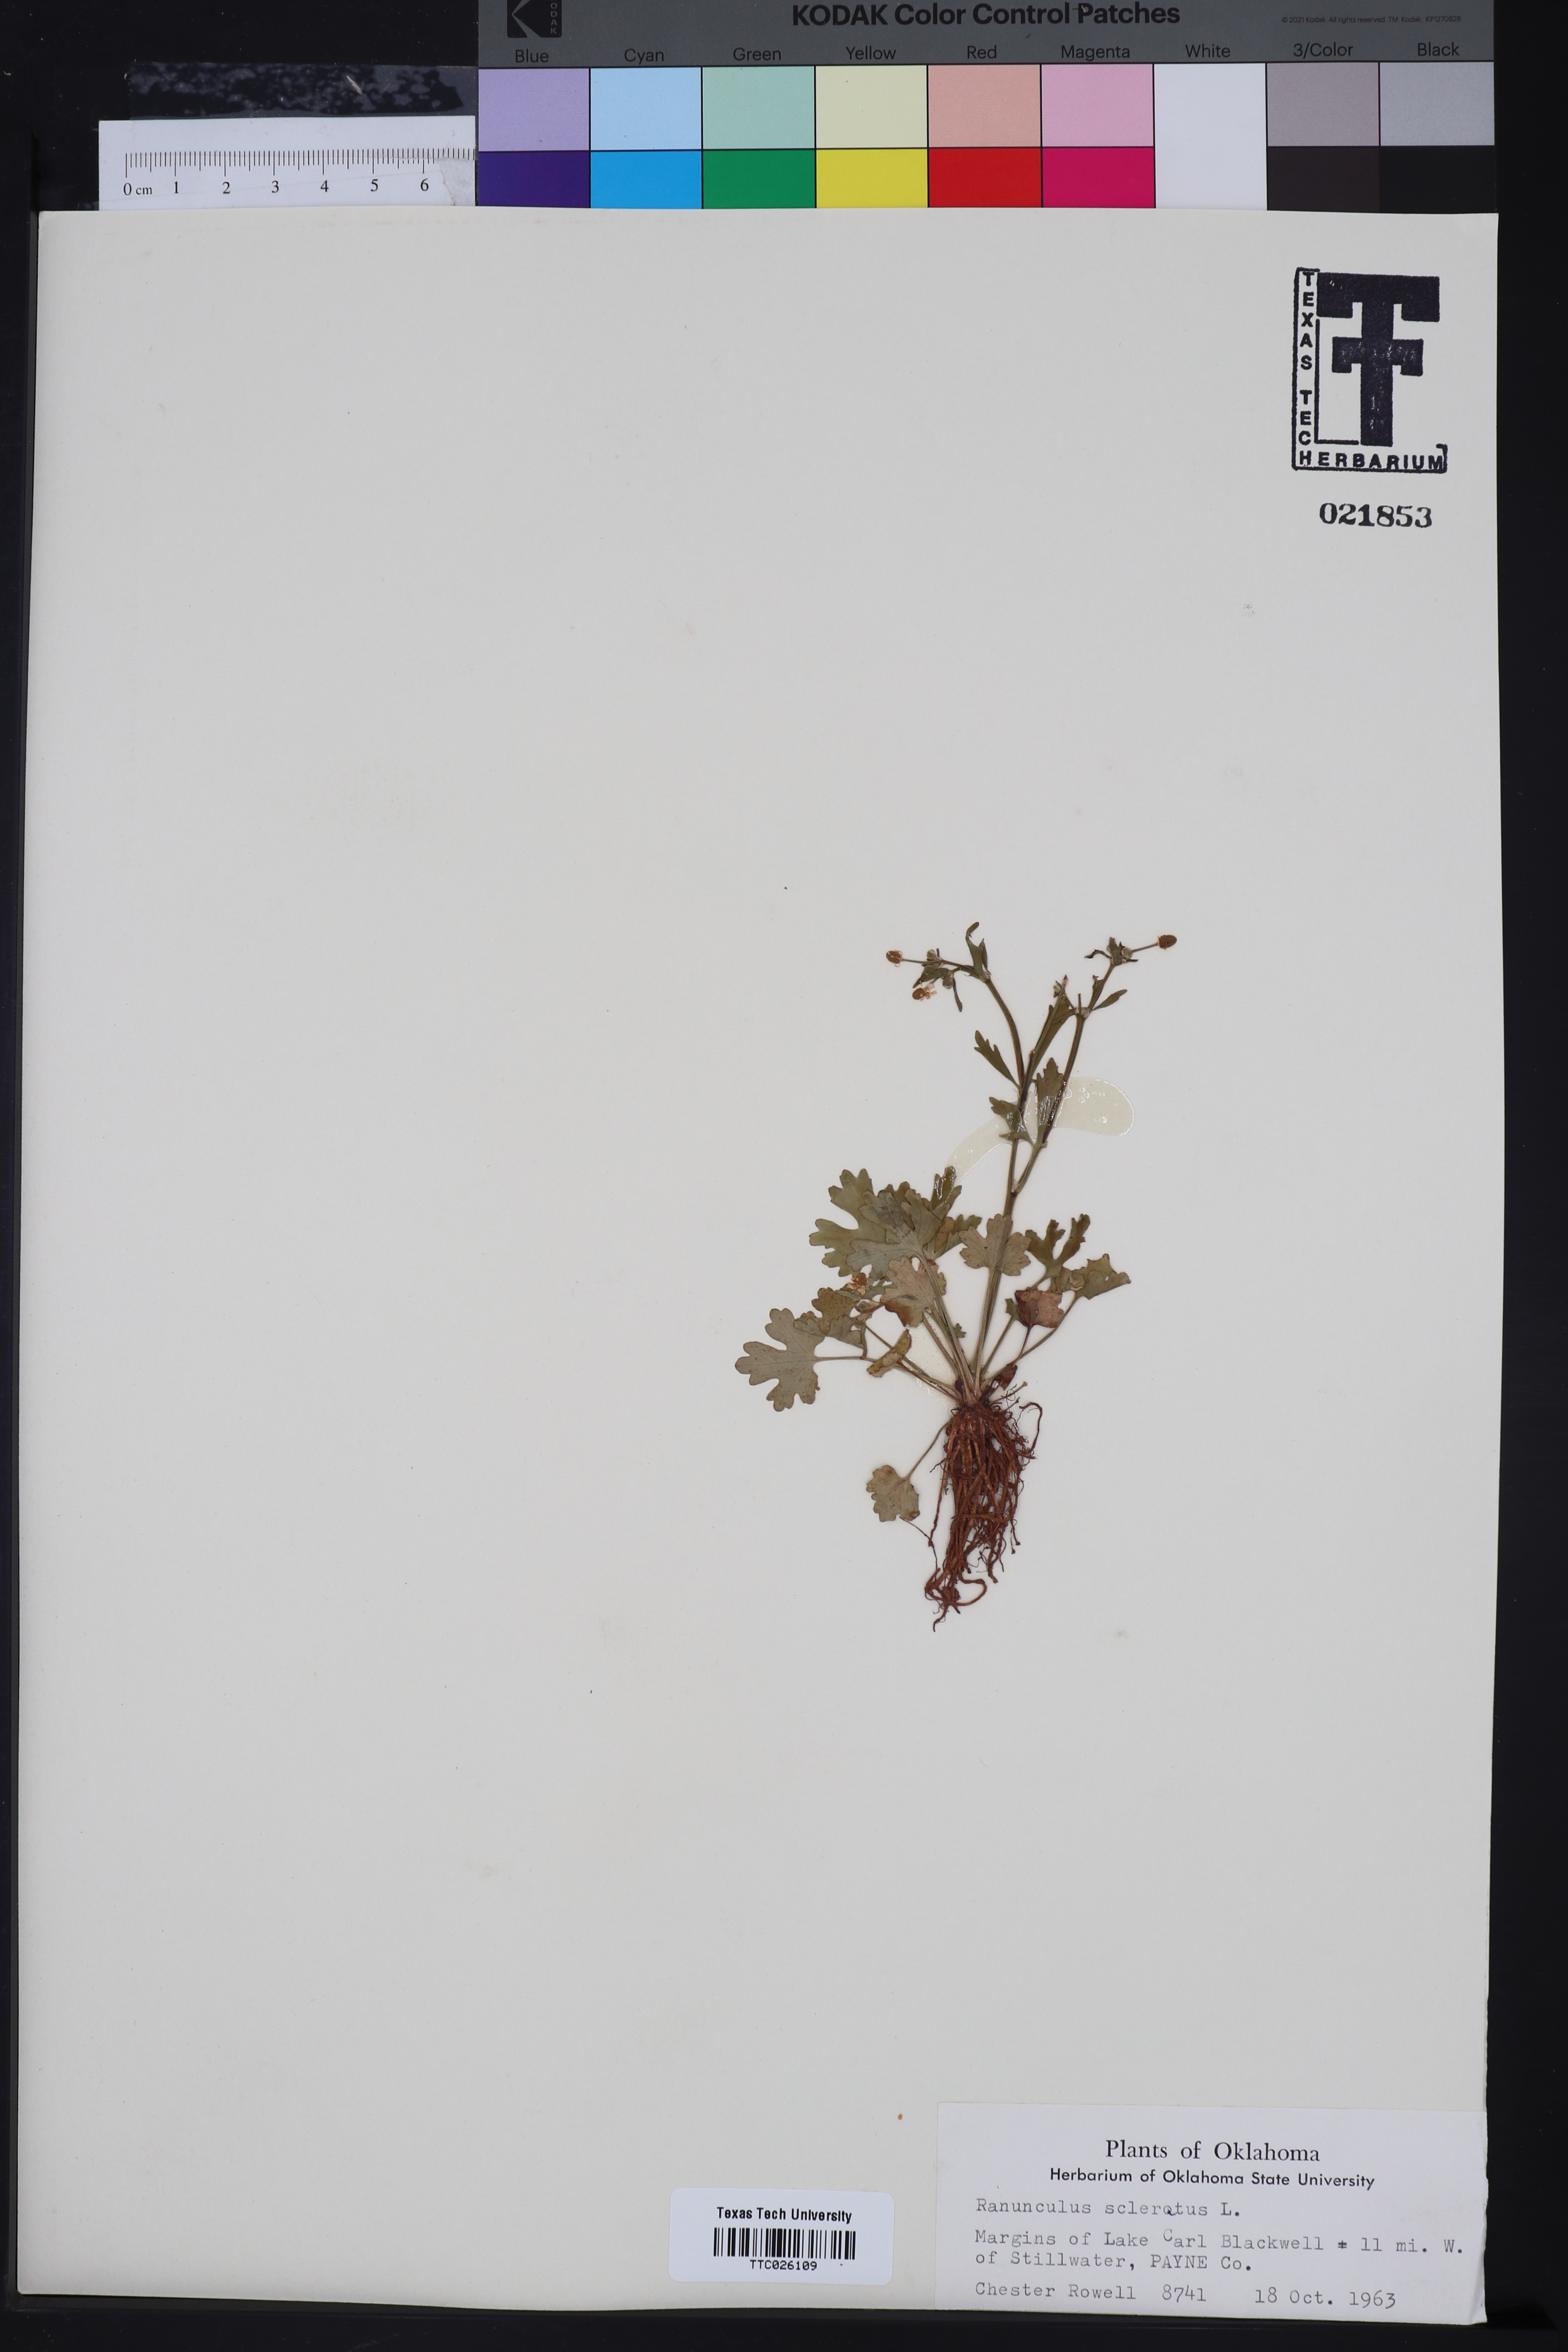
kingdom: Plantae
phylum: Tracheophyta
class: Magnoliopsida
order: Ranunculales
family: Ranunculaceae
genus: Ranunculus
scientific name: Ranunculus sceleratus
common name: Celery-leaved buttercup
